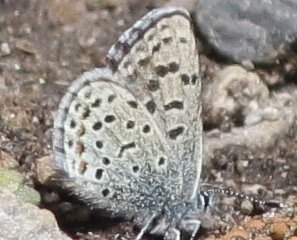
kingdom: Animalia
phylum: Arthropoda
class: Insecta
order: Lepidoptera
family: Lycaenidae
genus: Euphilotes
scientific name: Euphilotes
